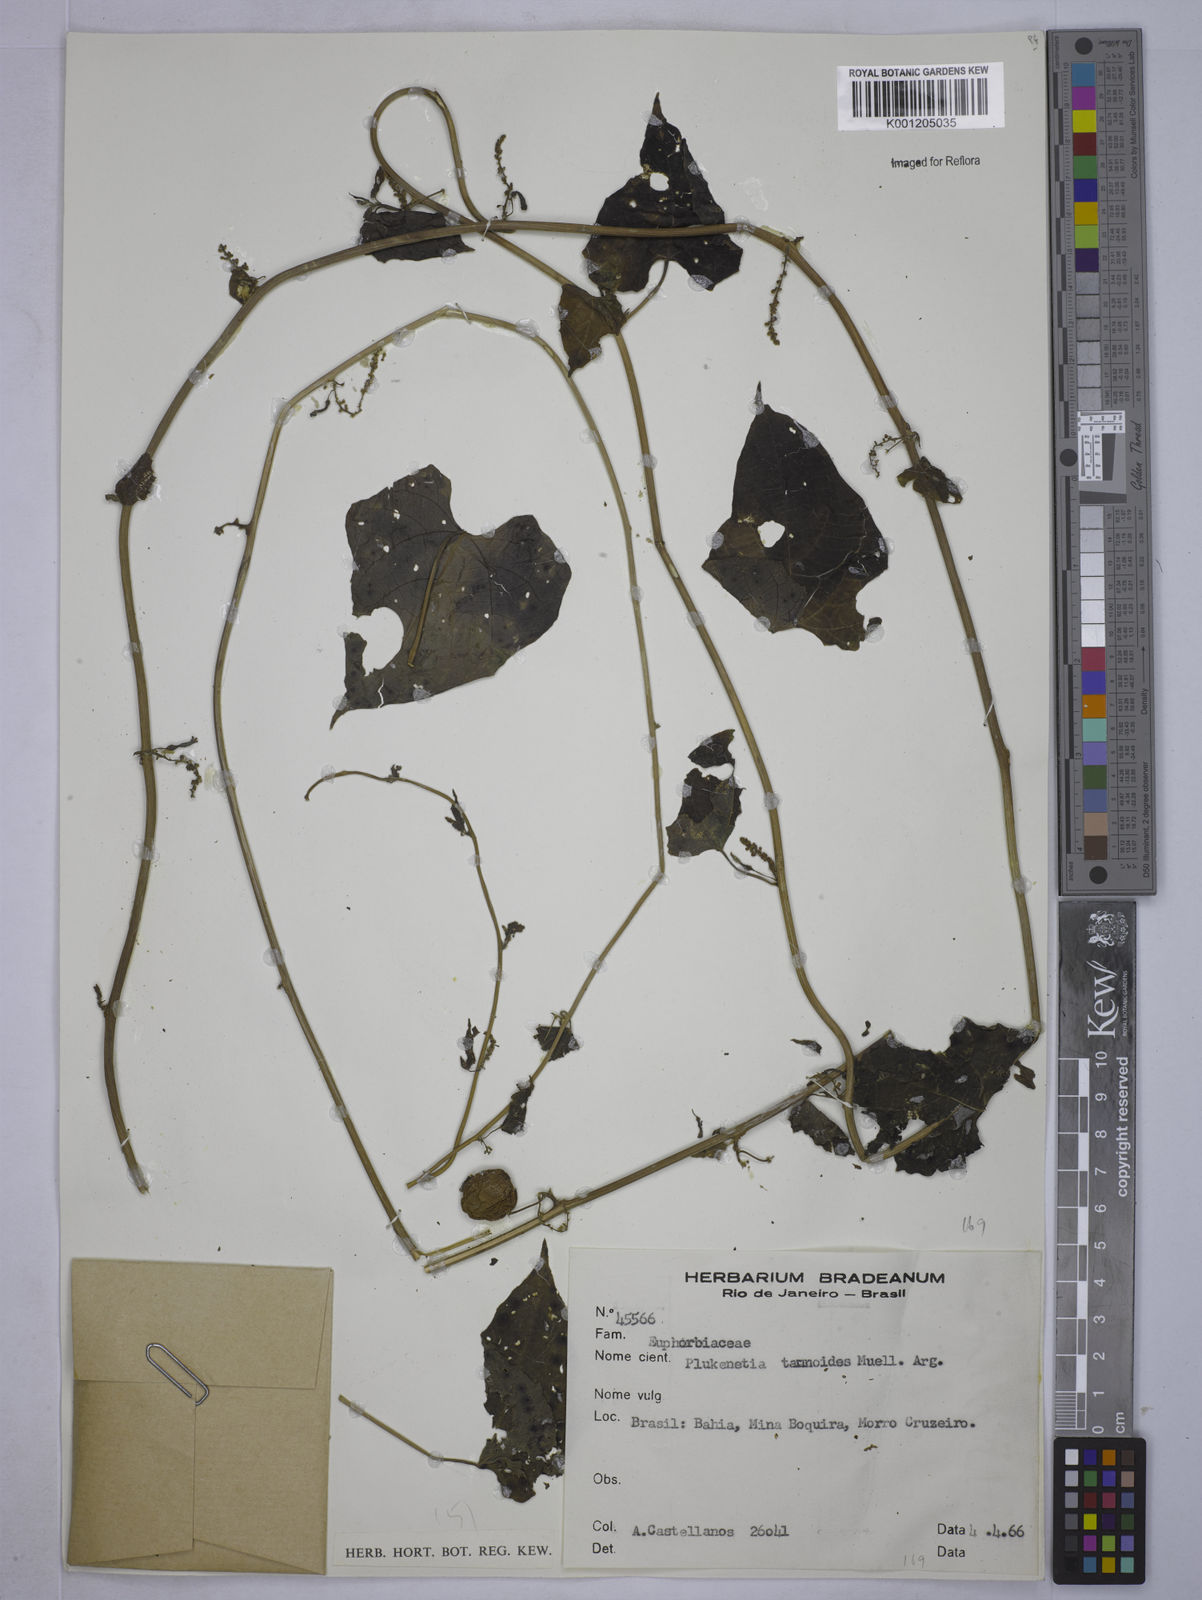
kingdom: Plantae
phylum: Tracheophyta
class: Magnoliopsida
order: Malpighiales
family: Euphorbiaceae
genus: Romanoa
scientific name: Romanoa tamnoides
